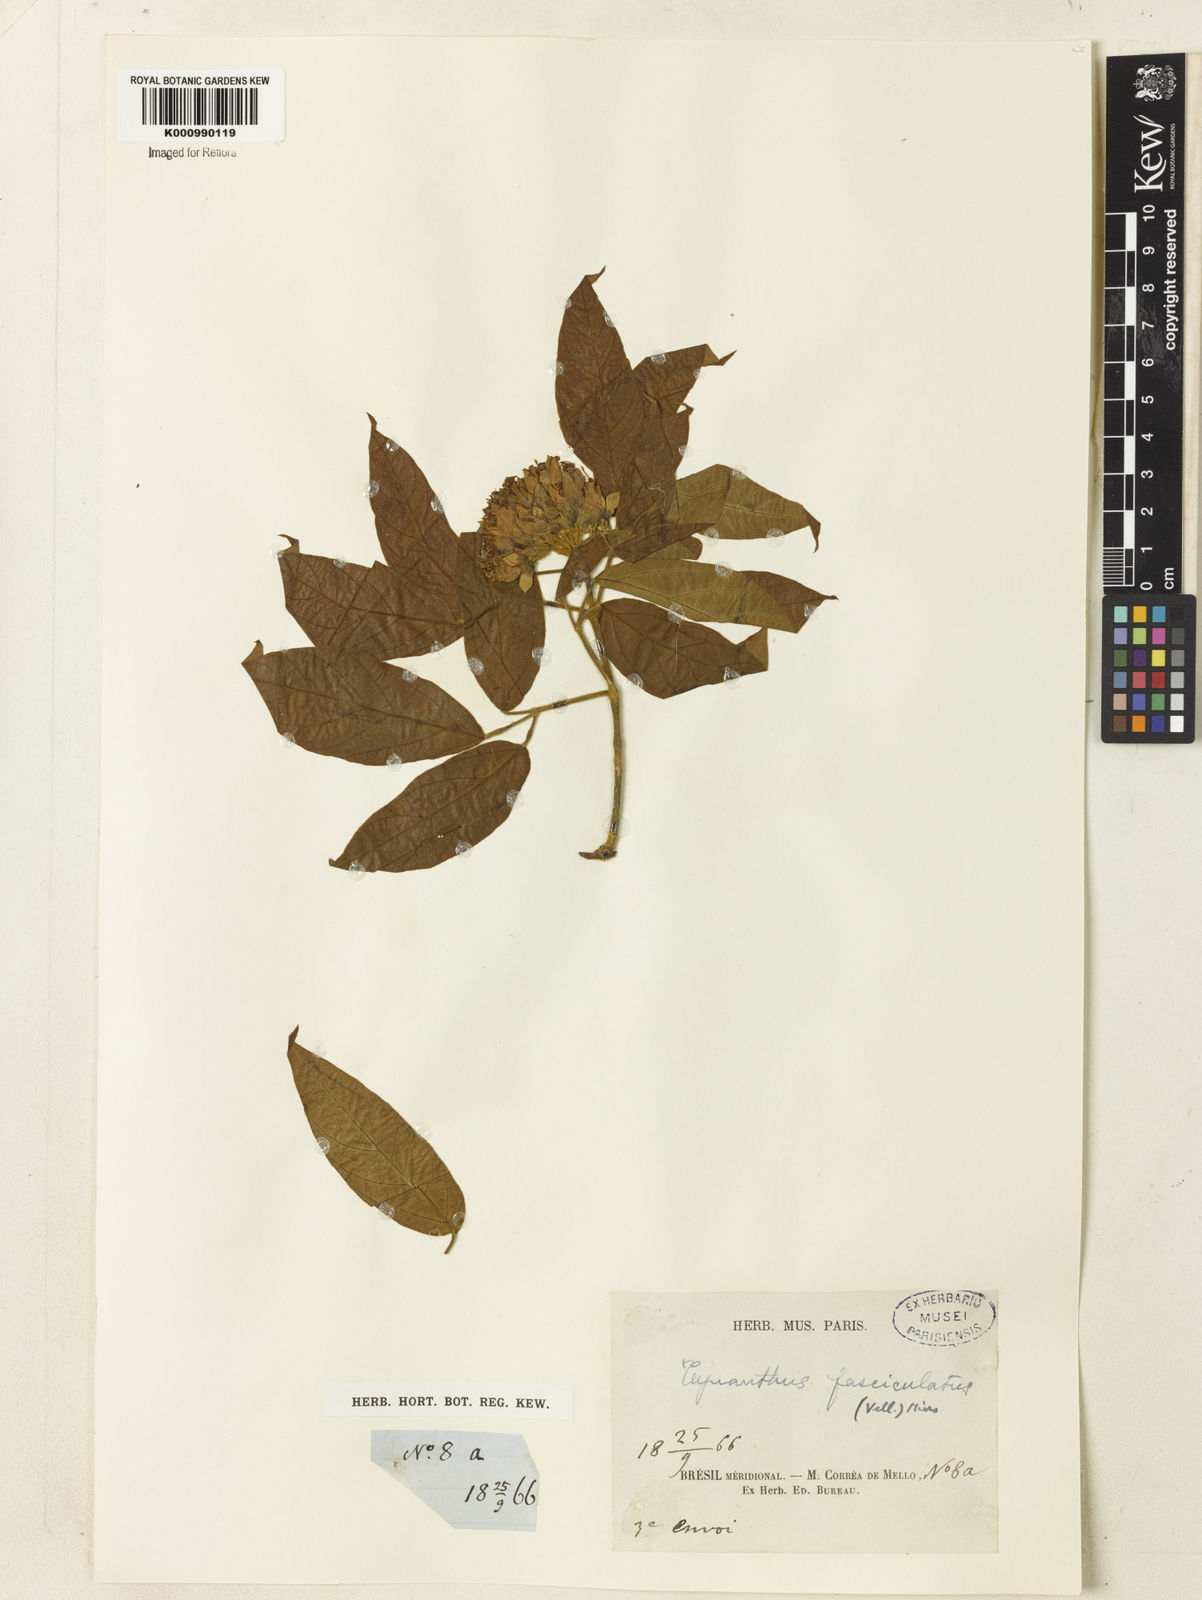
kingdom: Plantae
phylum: Tracheophyta
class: Magnoliopsida
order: Lamiales
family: Bignoniaceae
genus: Tynanthus
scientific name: Tynanthus fasciculatus
